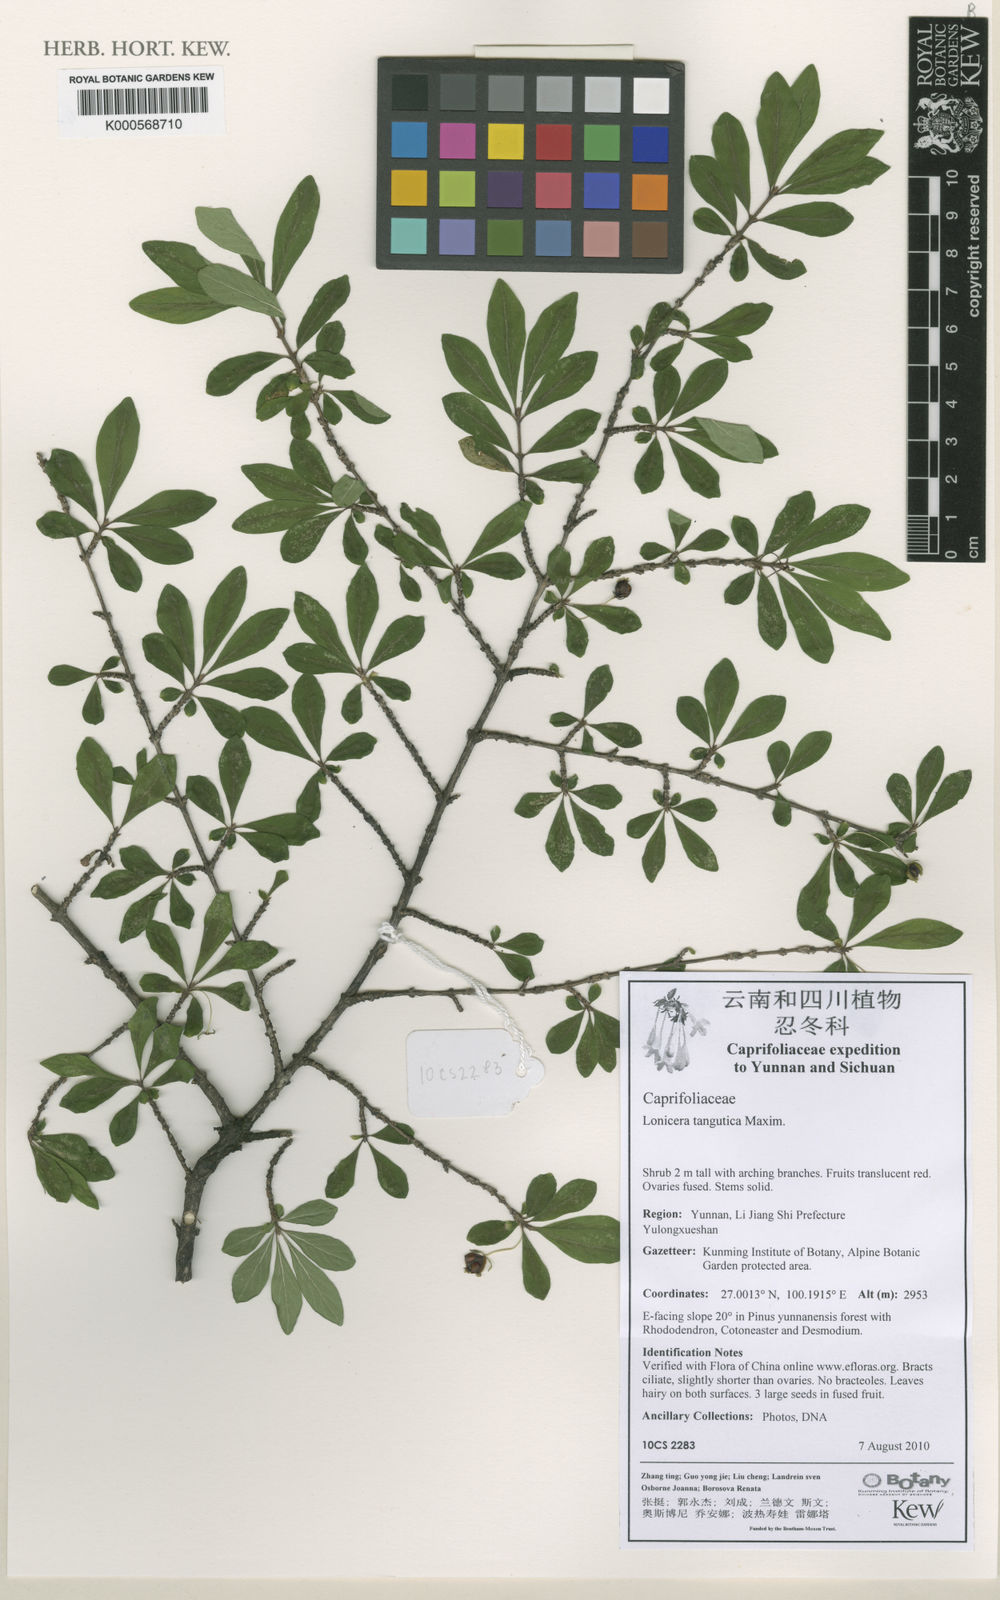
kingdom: Plantae
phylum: Tracheophyta
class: Magnoliopsida
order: Dipsacales
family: Caprifoliaceae
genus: Lonicera
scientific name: Lonicera tangutica
